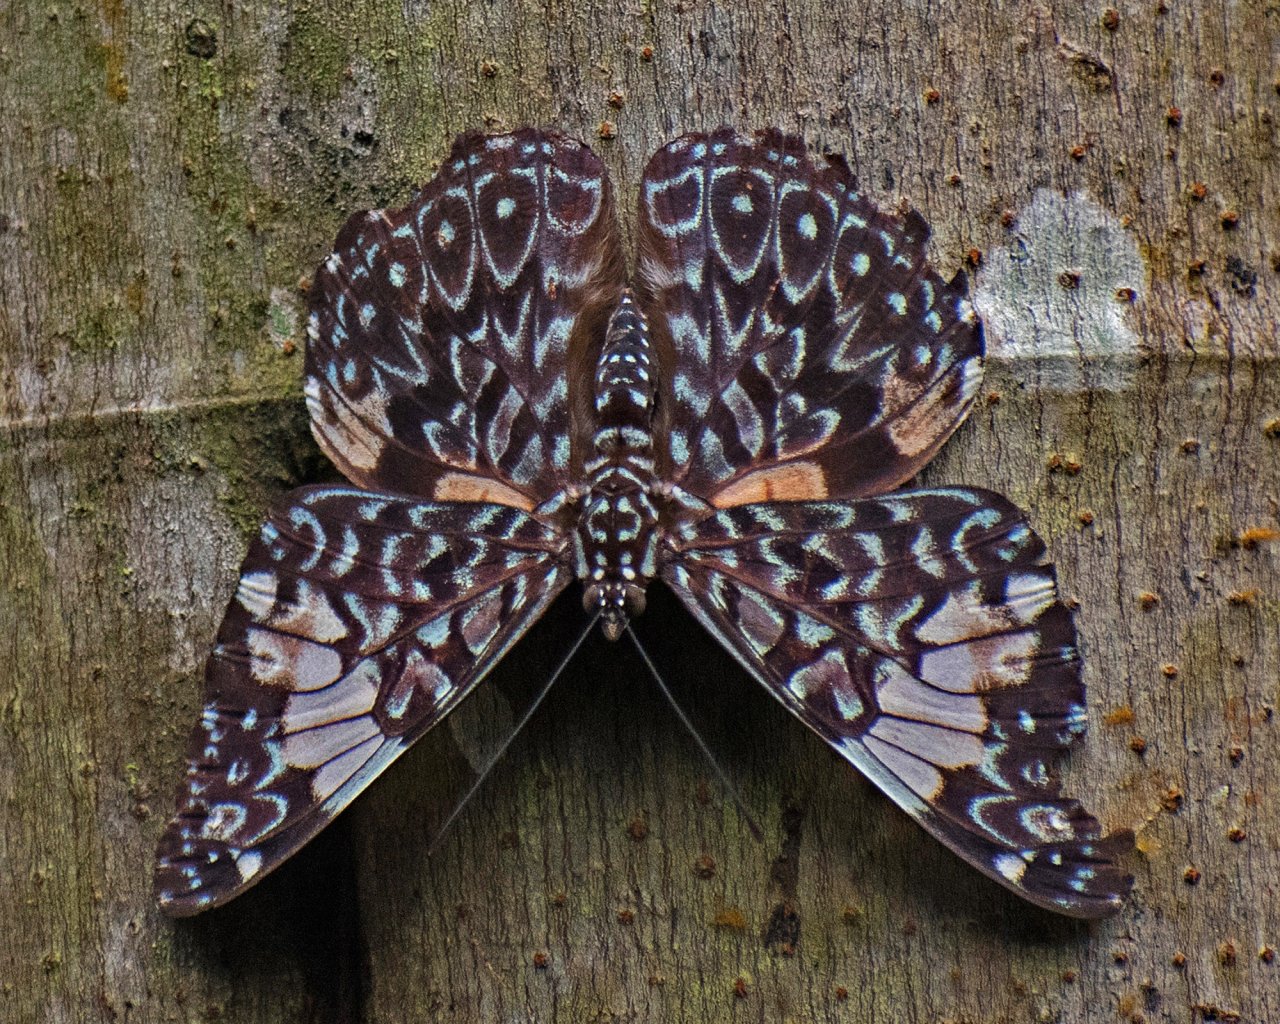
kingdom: Animalia
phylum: Arthropoda
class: Insecta
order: Lepidoptera
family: Nymphalidae
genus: Hamadryas
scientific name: Hamadryas amphinome
